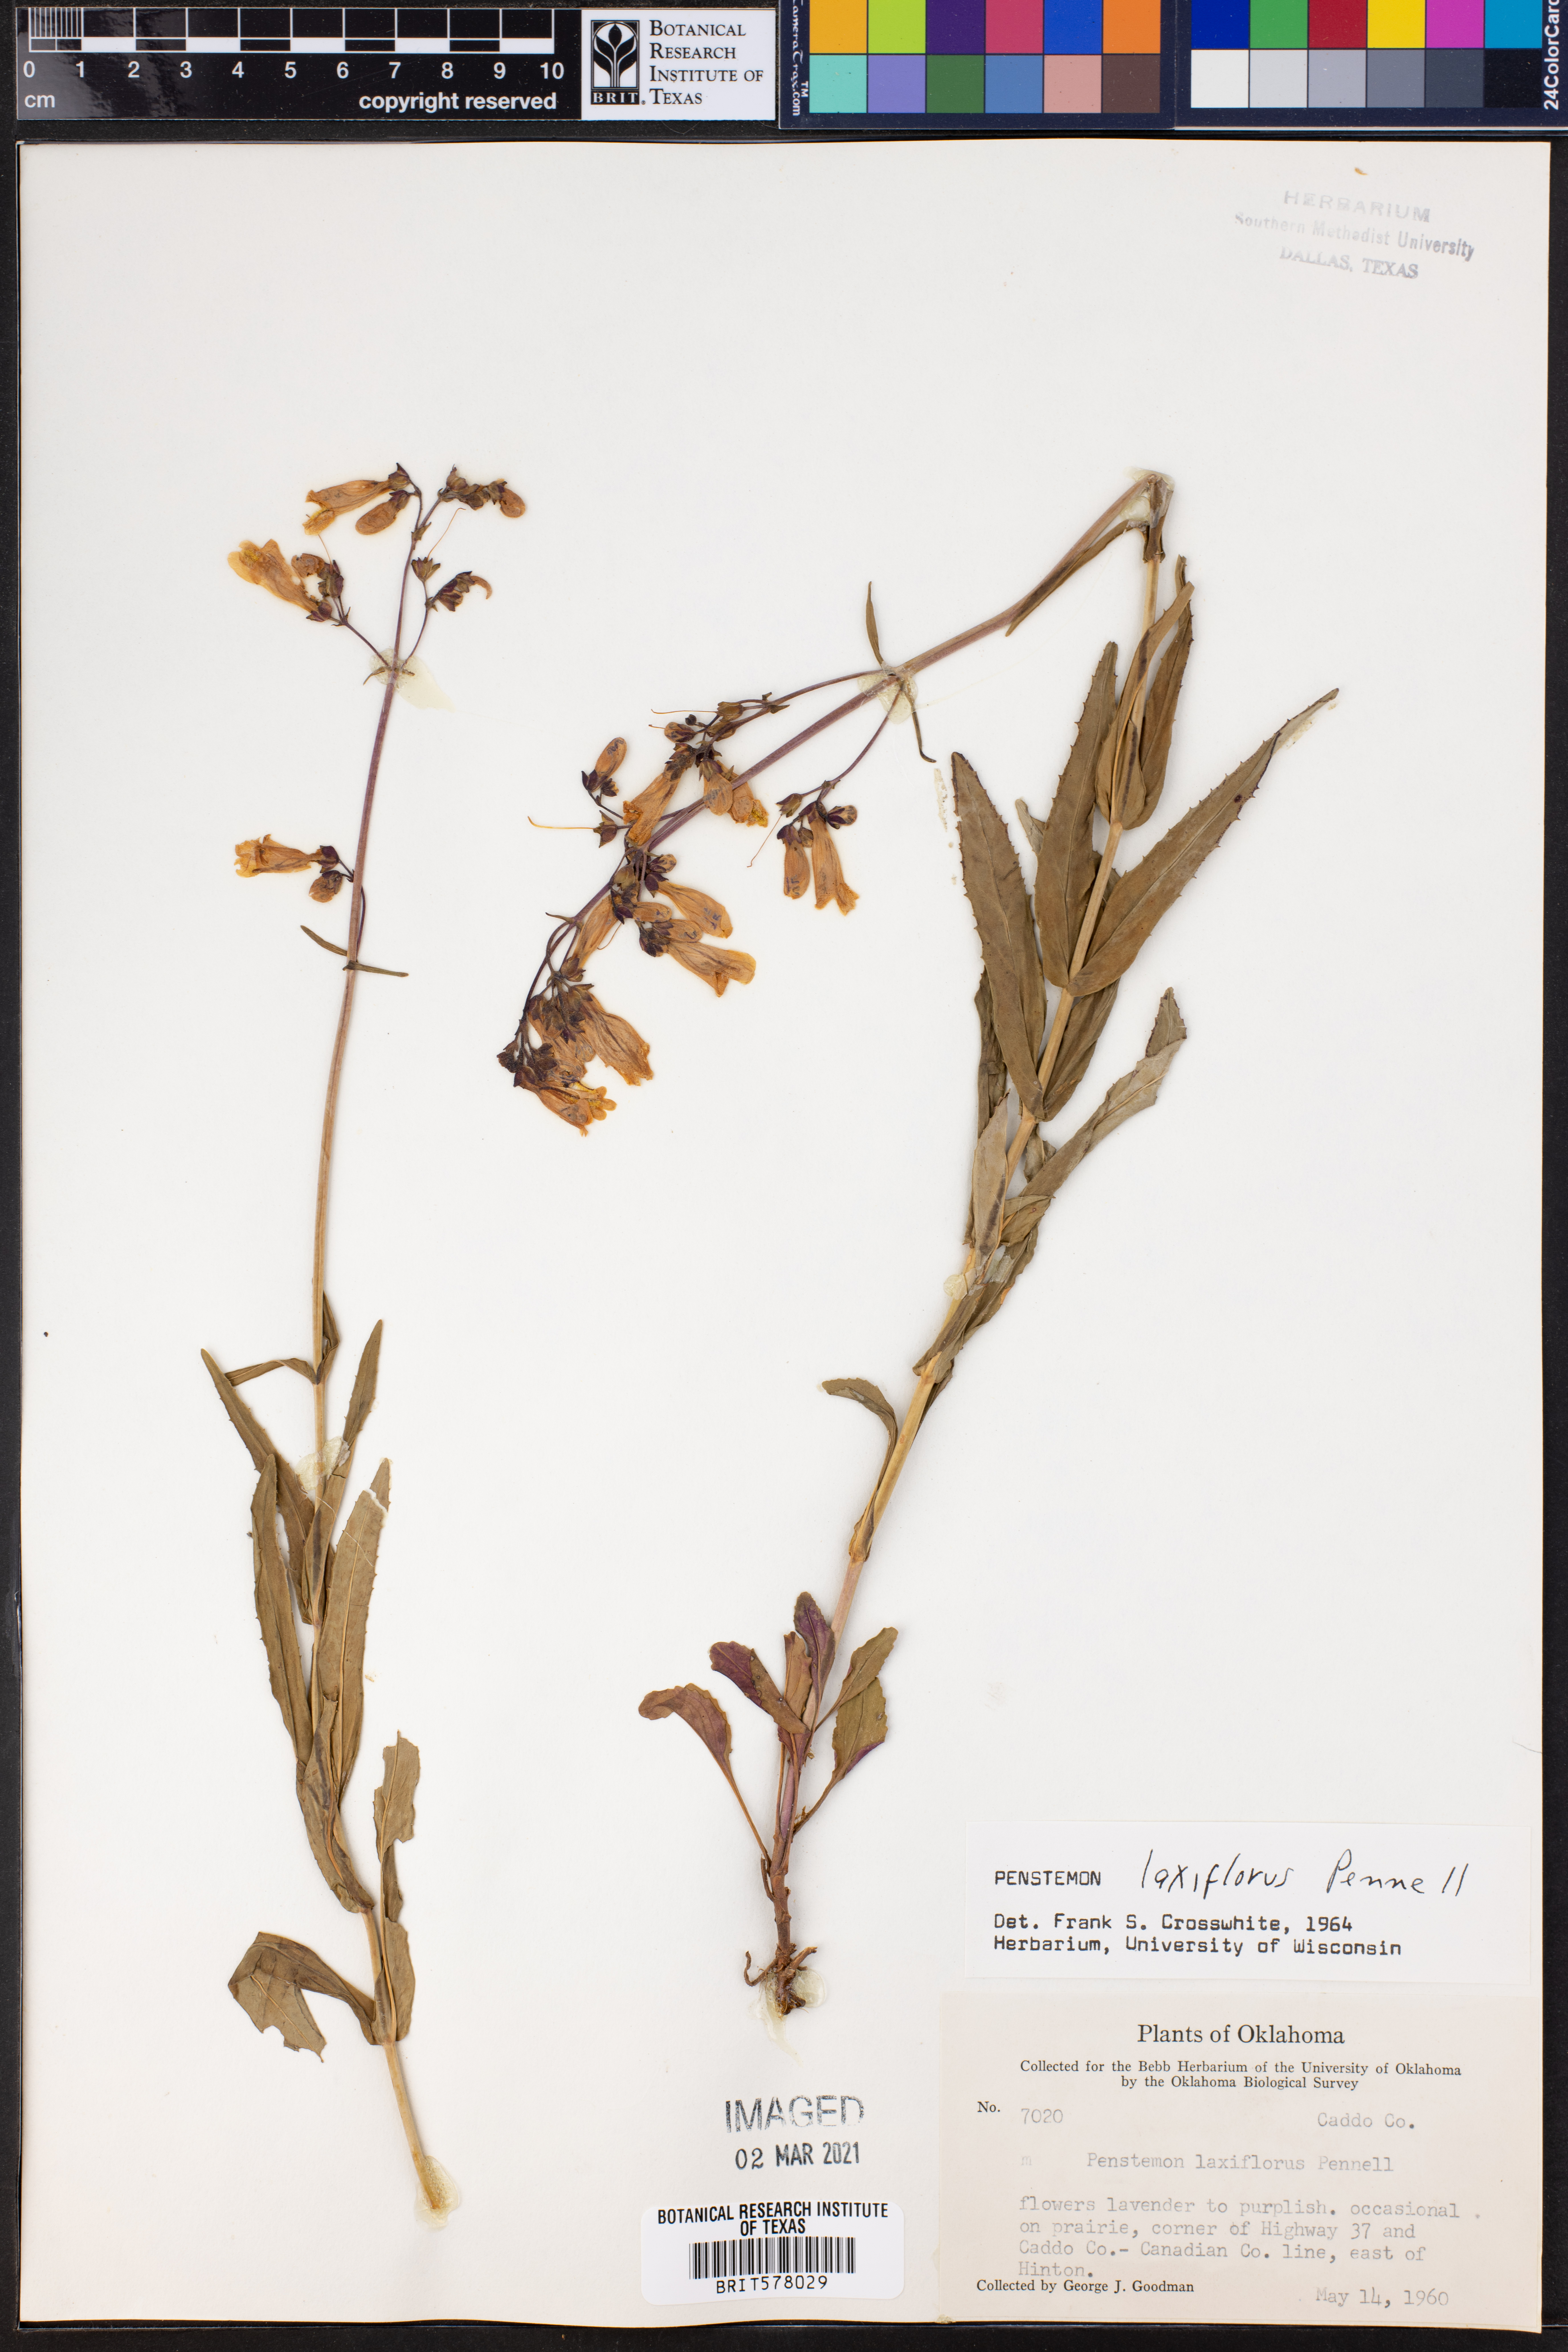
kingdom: Plantae
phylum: Tracheophyta
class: Magnoliopsida
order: Lamiales
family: Plantaginaceae
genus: Penstemon
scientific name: Penstemon laxiflorus
